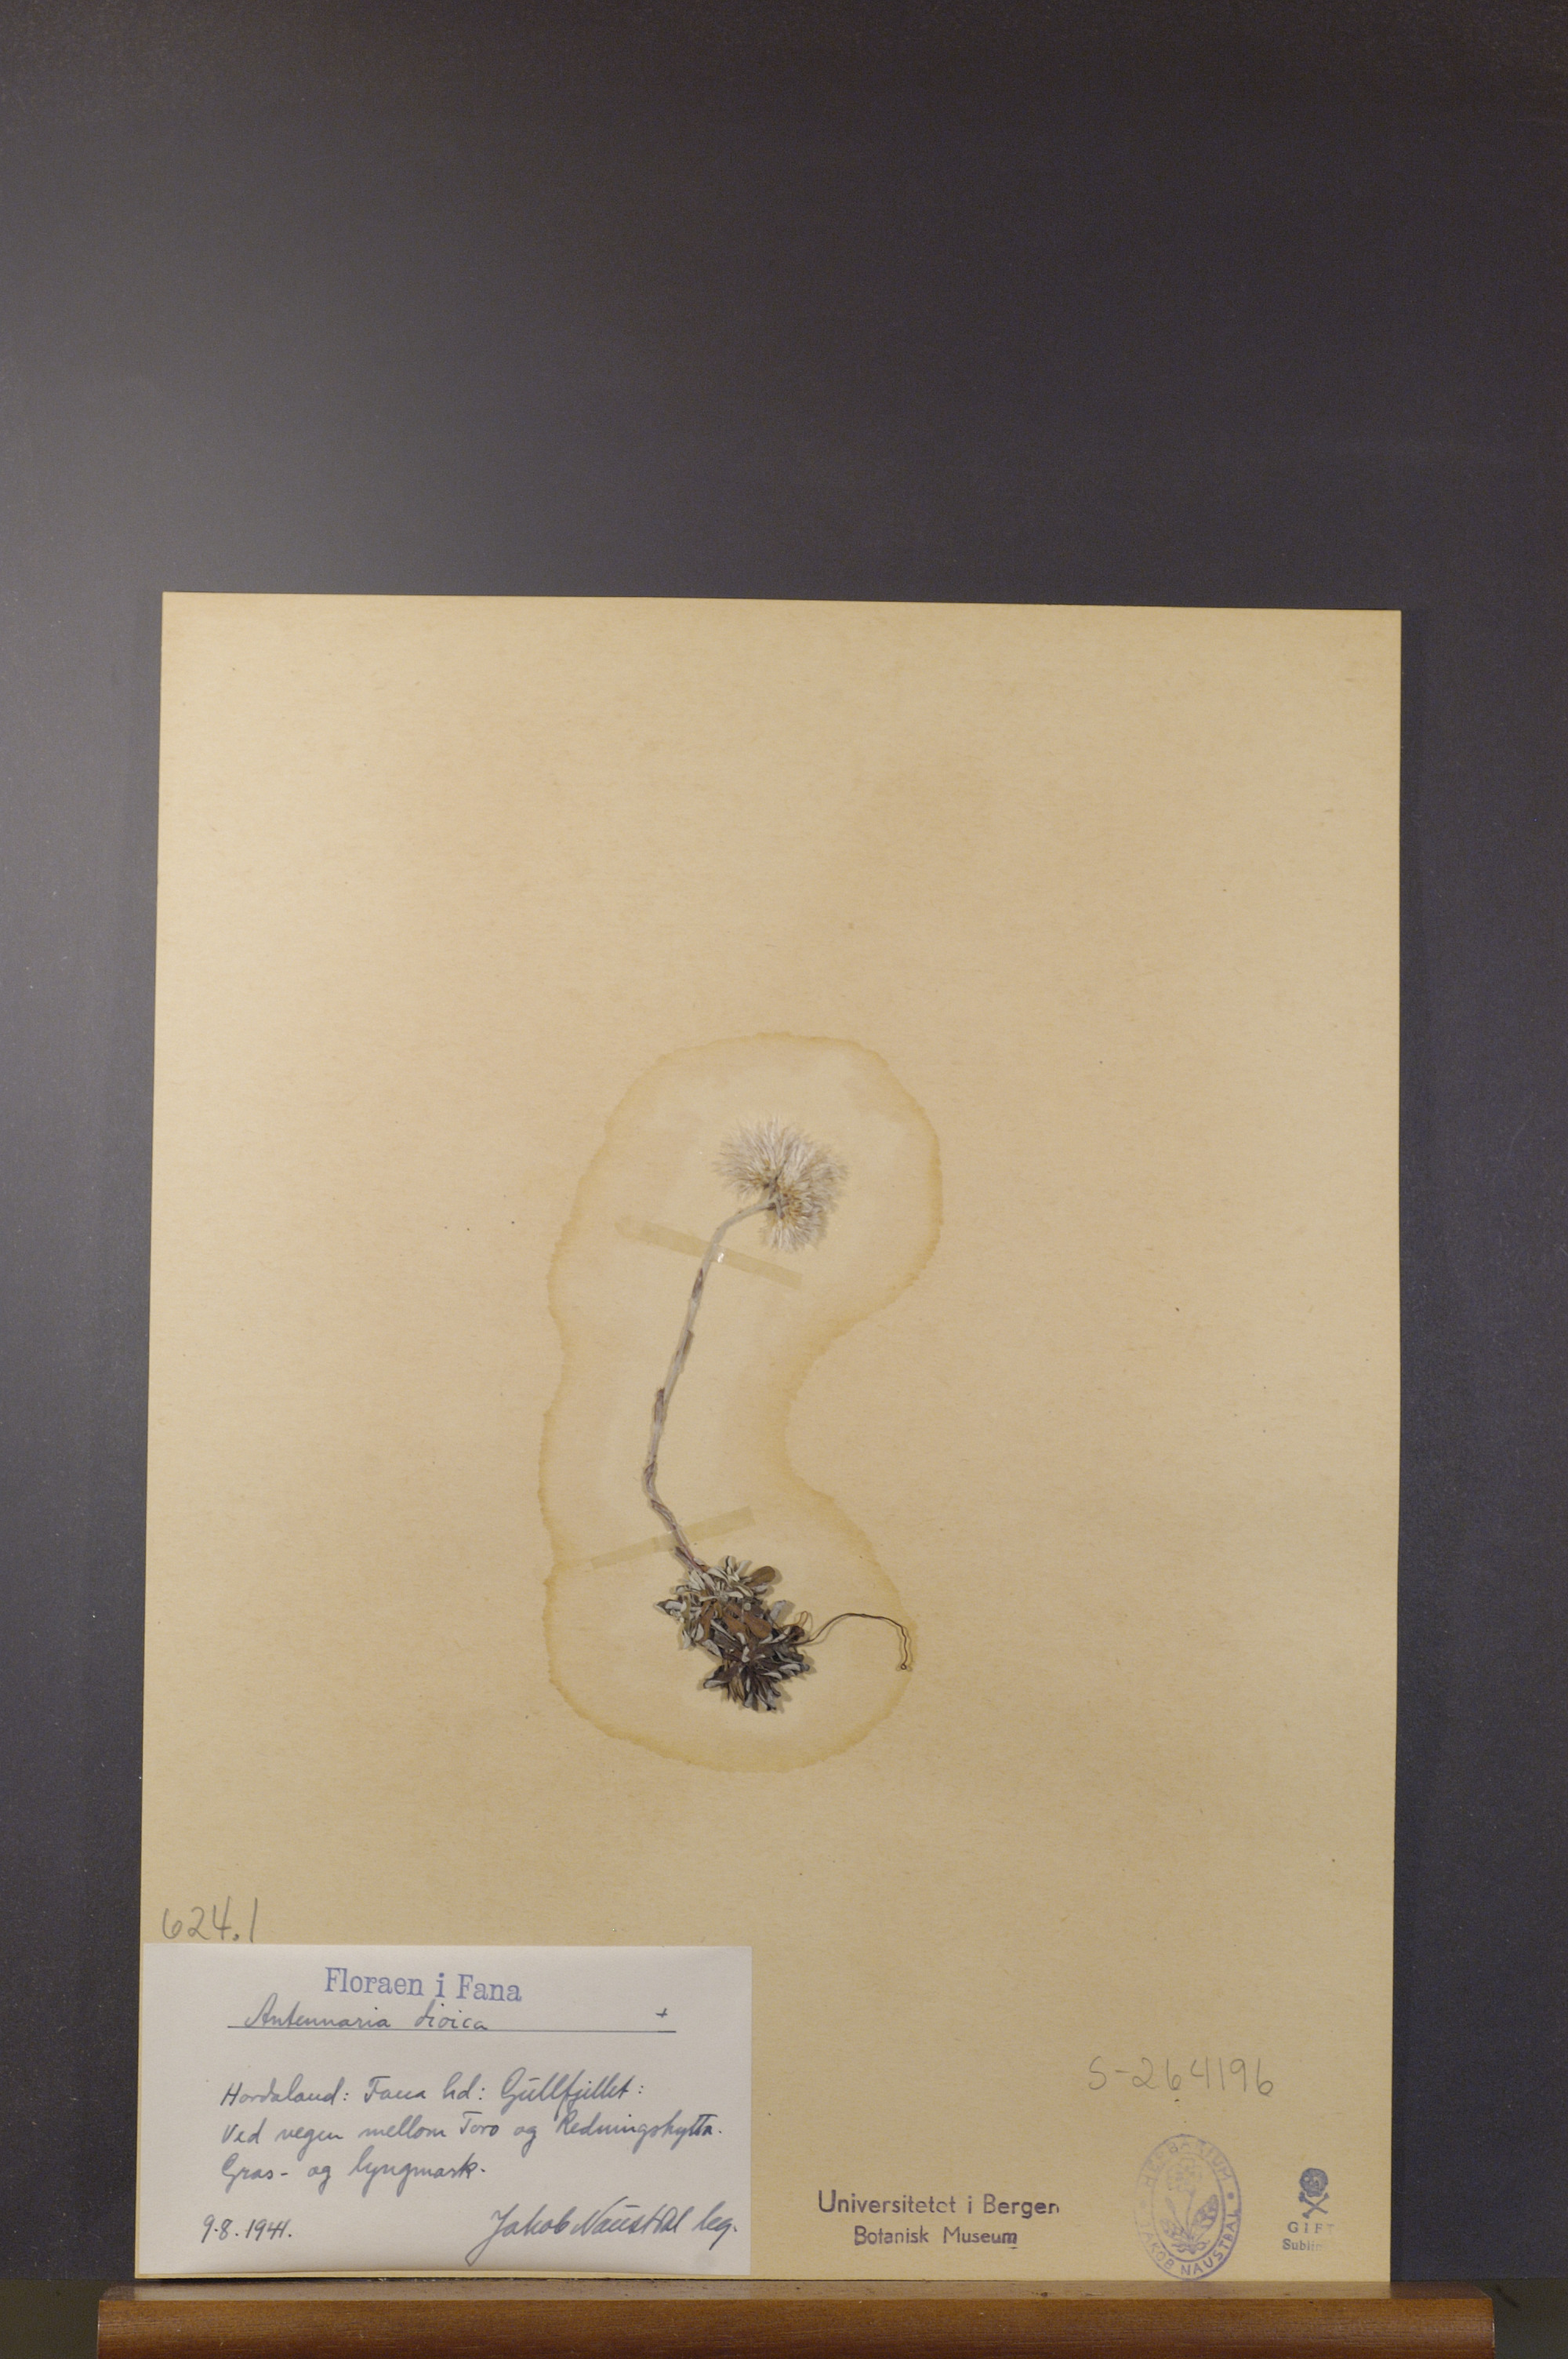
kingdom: Plantae
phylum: Tracheophyta
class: Magnoliopsida
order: Asterales
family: Asteraceae
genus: Antennaria
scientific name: Antennaria dioica
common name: Mountain everlasting
